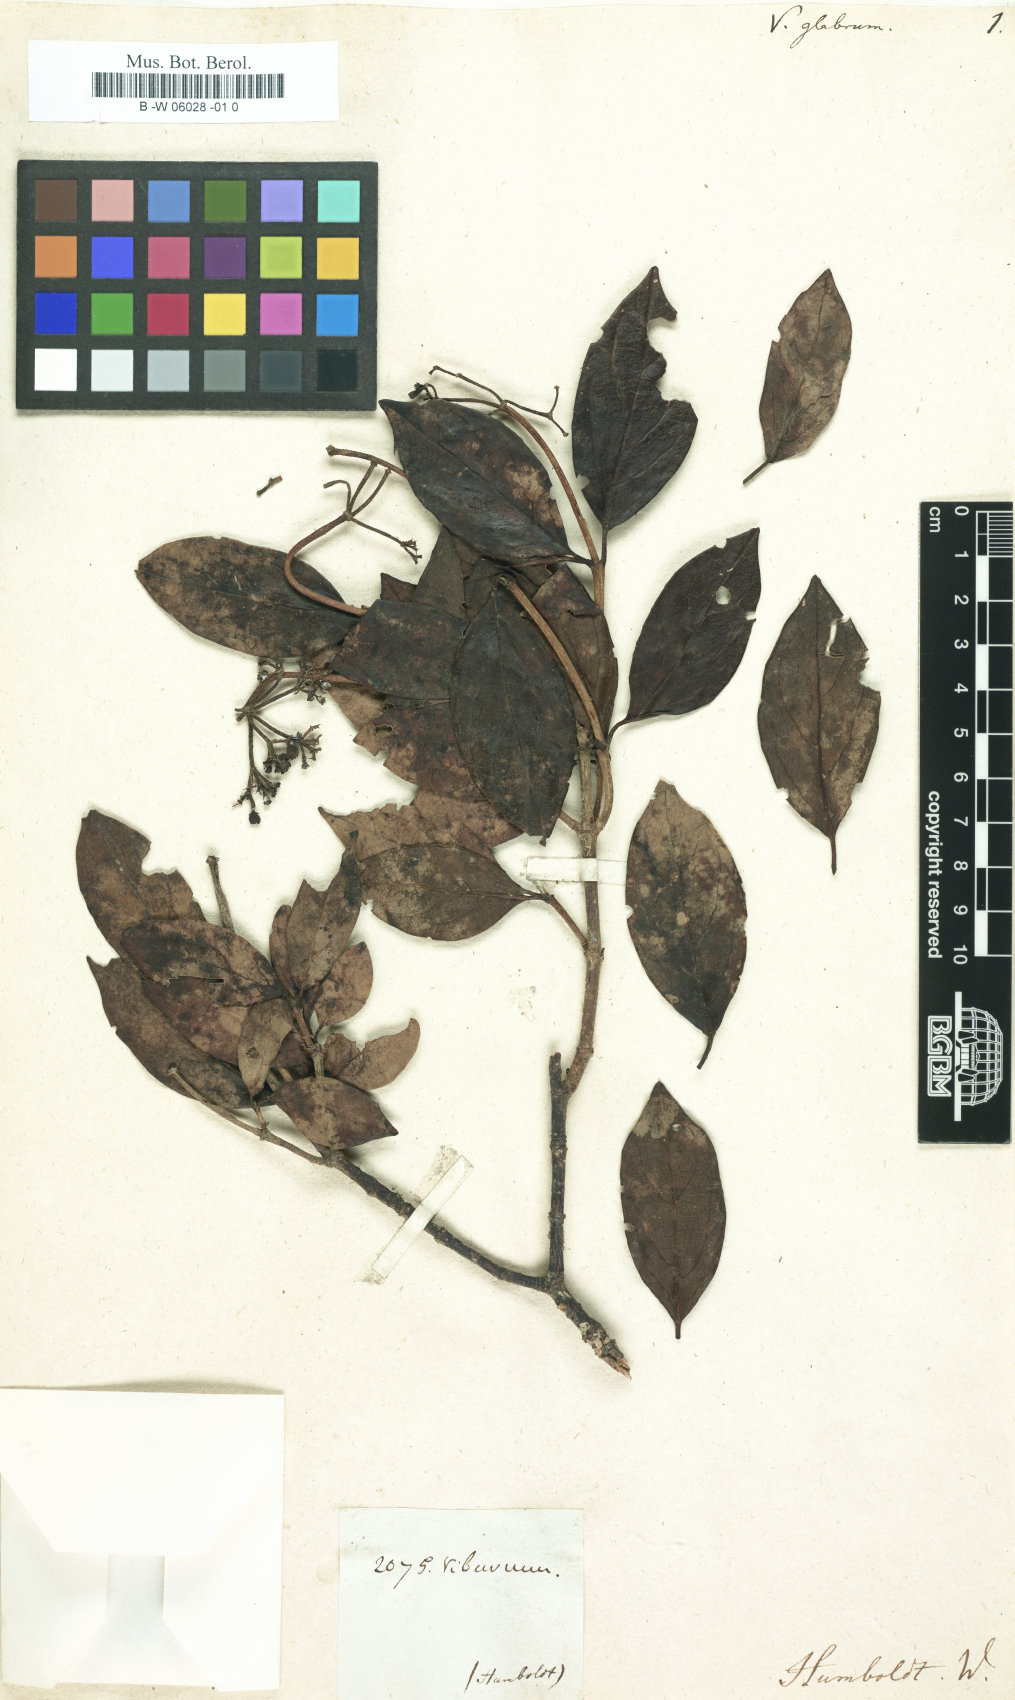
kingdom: Plantae
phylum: Tracheophyta
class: Magnoliopsida
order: Dipsacales
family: Viburnaceae
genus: Viburnum
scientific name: Viburnum glabratum
